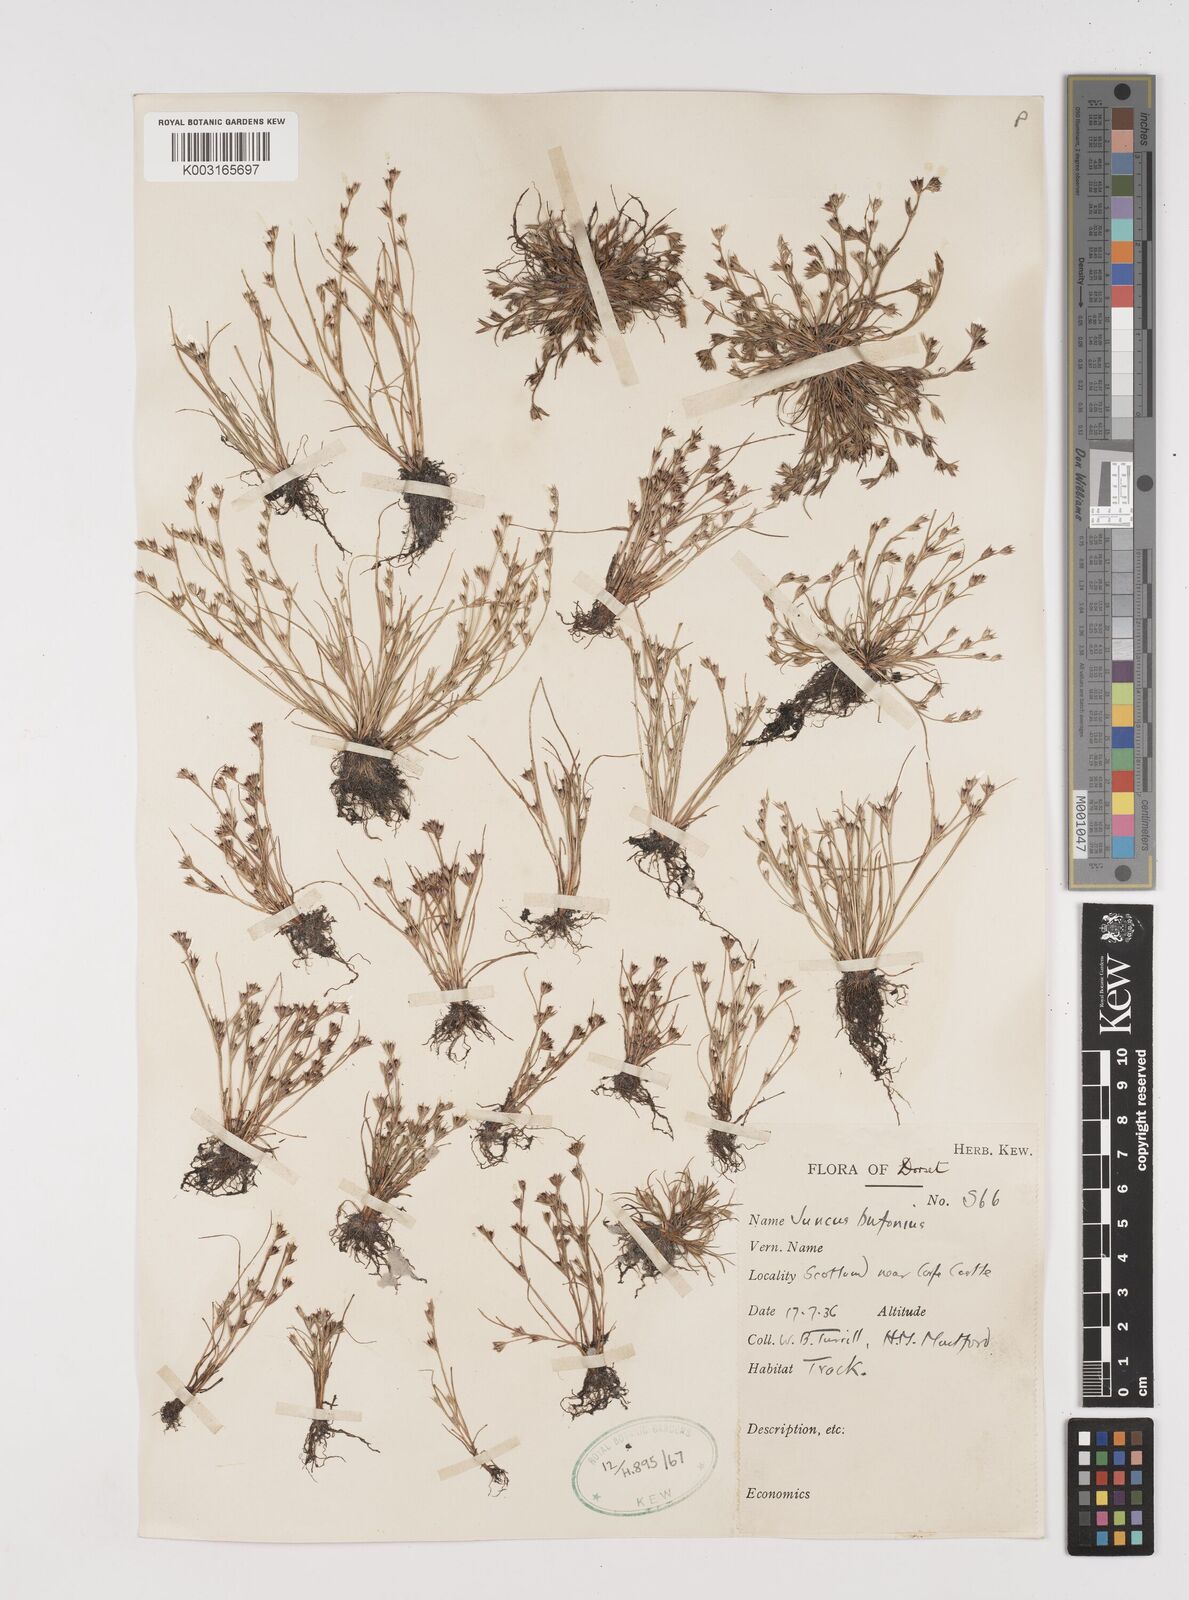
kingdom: Plantae
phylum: Tracheophyta
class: Liliopsida
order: Poales
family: Juncaceae
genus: Juncus
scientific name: Juncus bufonius
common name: Toad rush
